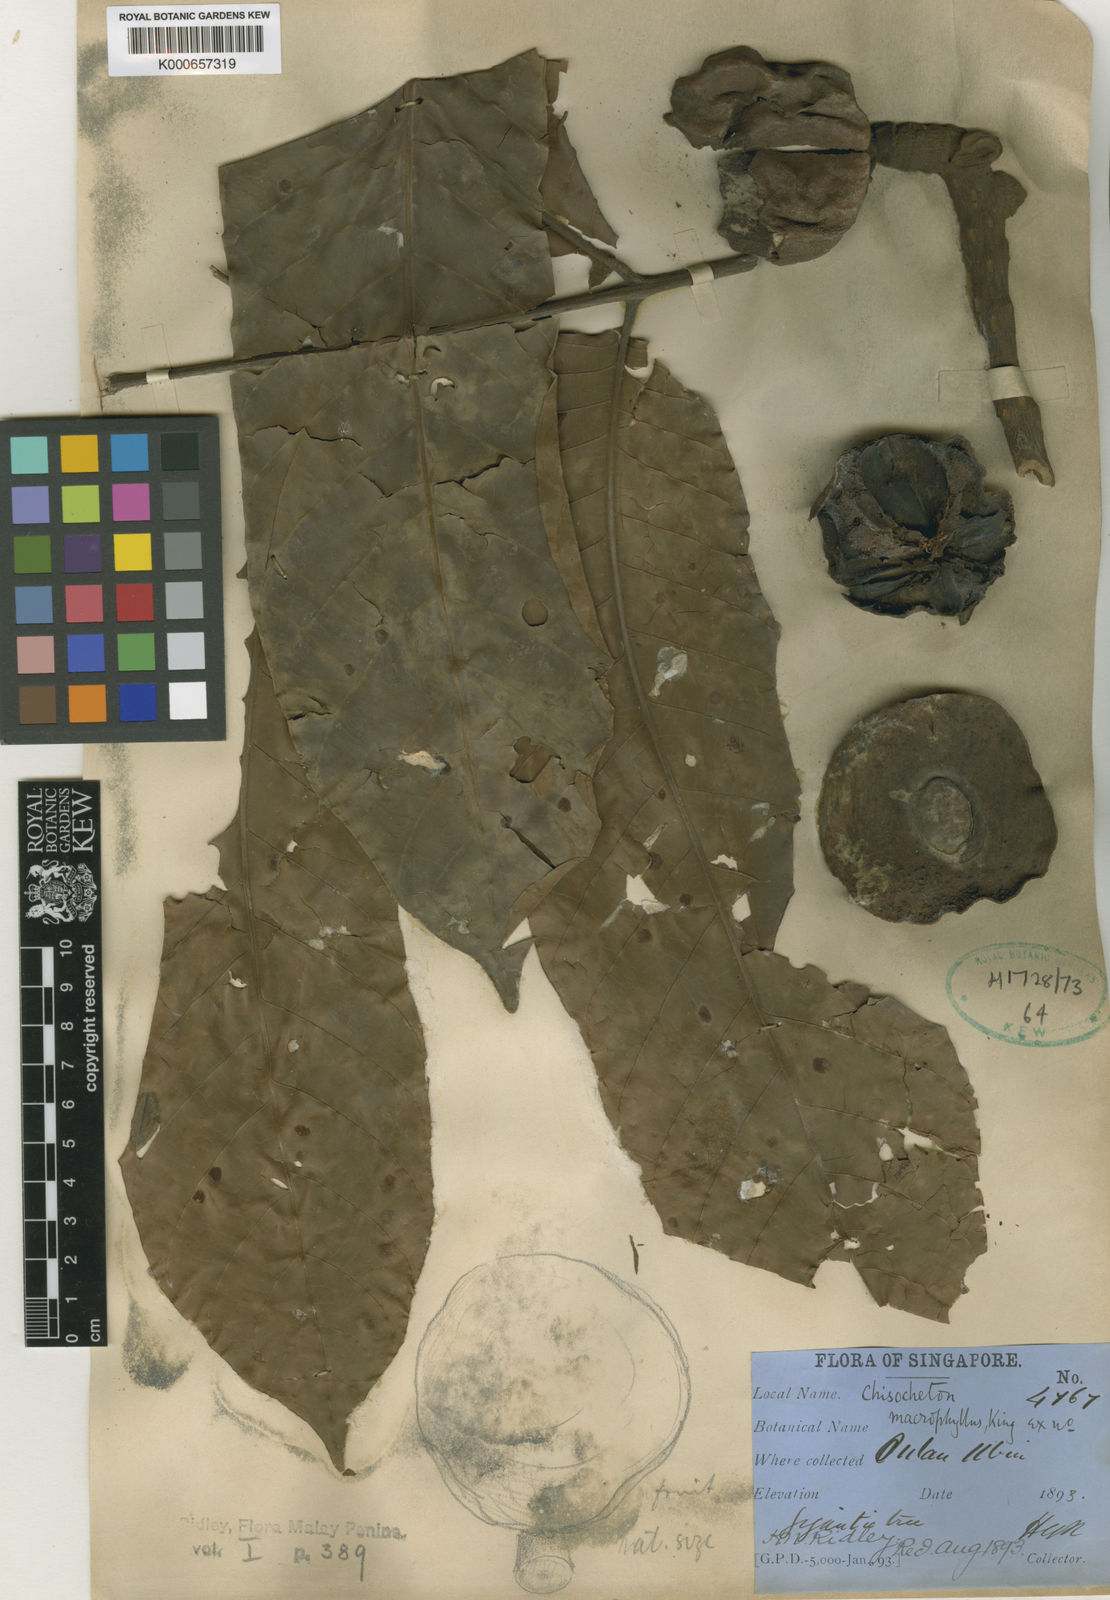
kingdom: Plantae
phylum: Tracheophyta
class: Magnoliopsida
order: Sapindales
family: Meliaceae
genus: Chisocheton
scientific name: Chisocheton macrophyllus
